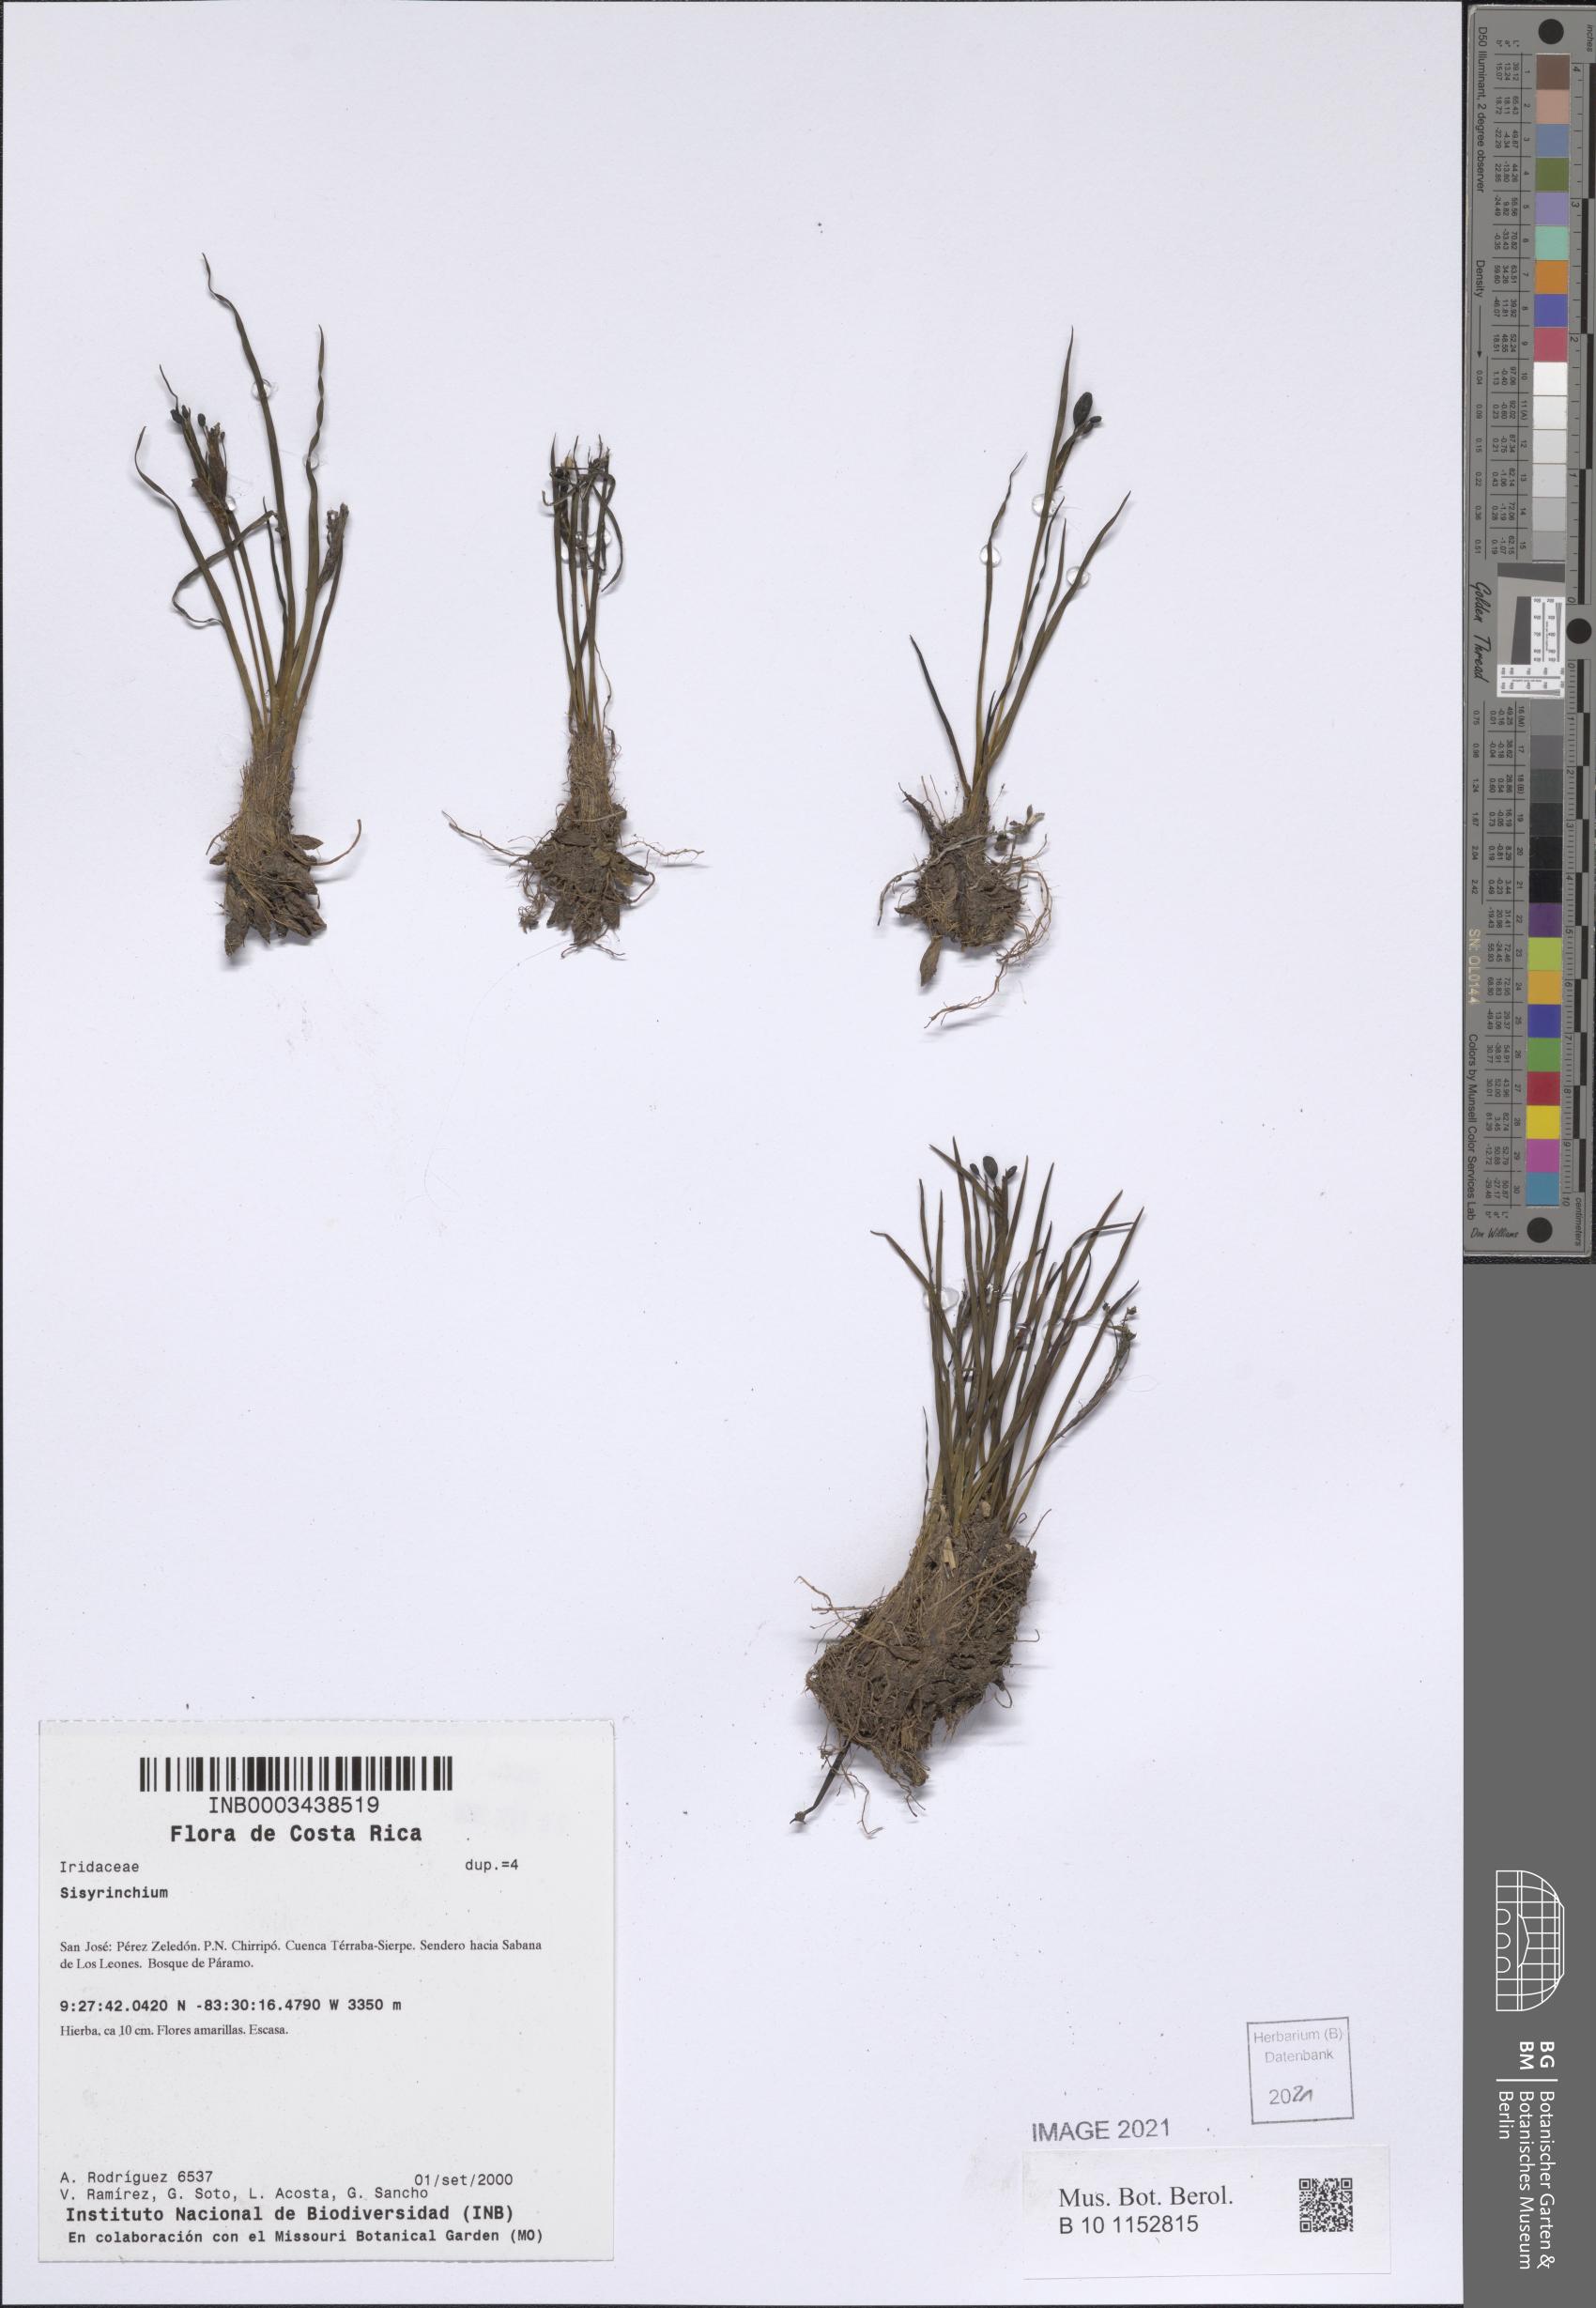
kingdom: Plantae
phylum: Tracheophyta
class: Liliopsida
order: Asparagales
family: Iridaceae
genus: Sisyrinchium
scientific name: Sisyrinchium
